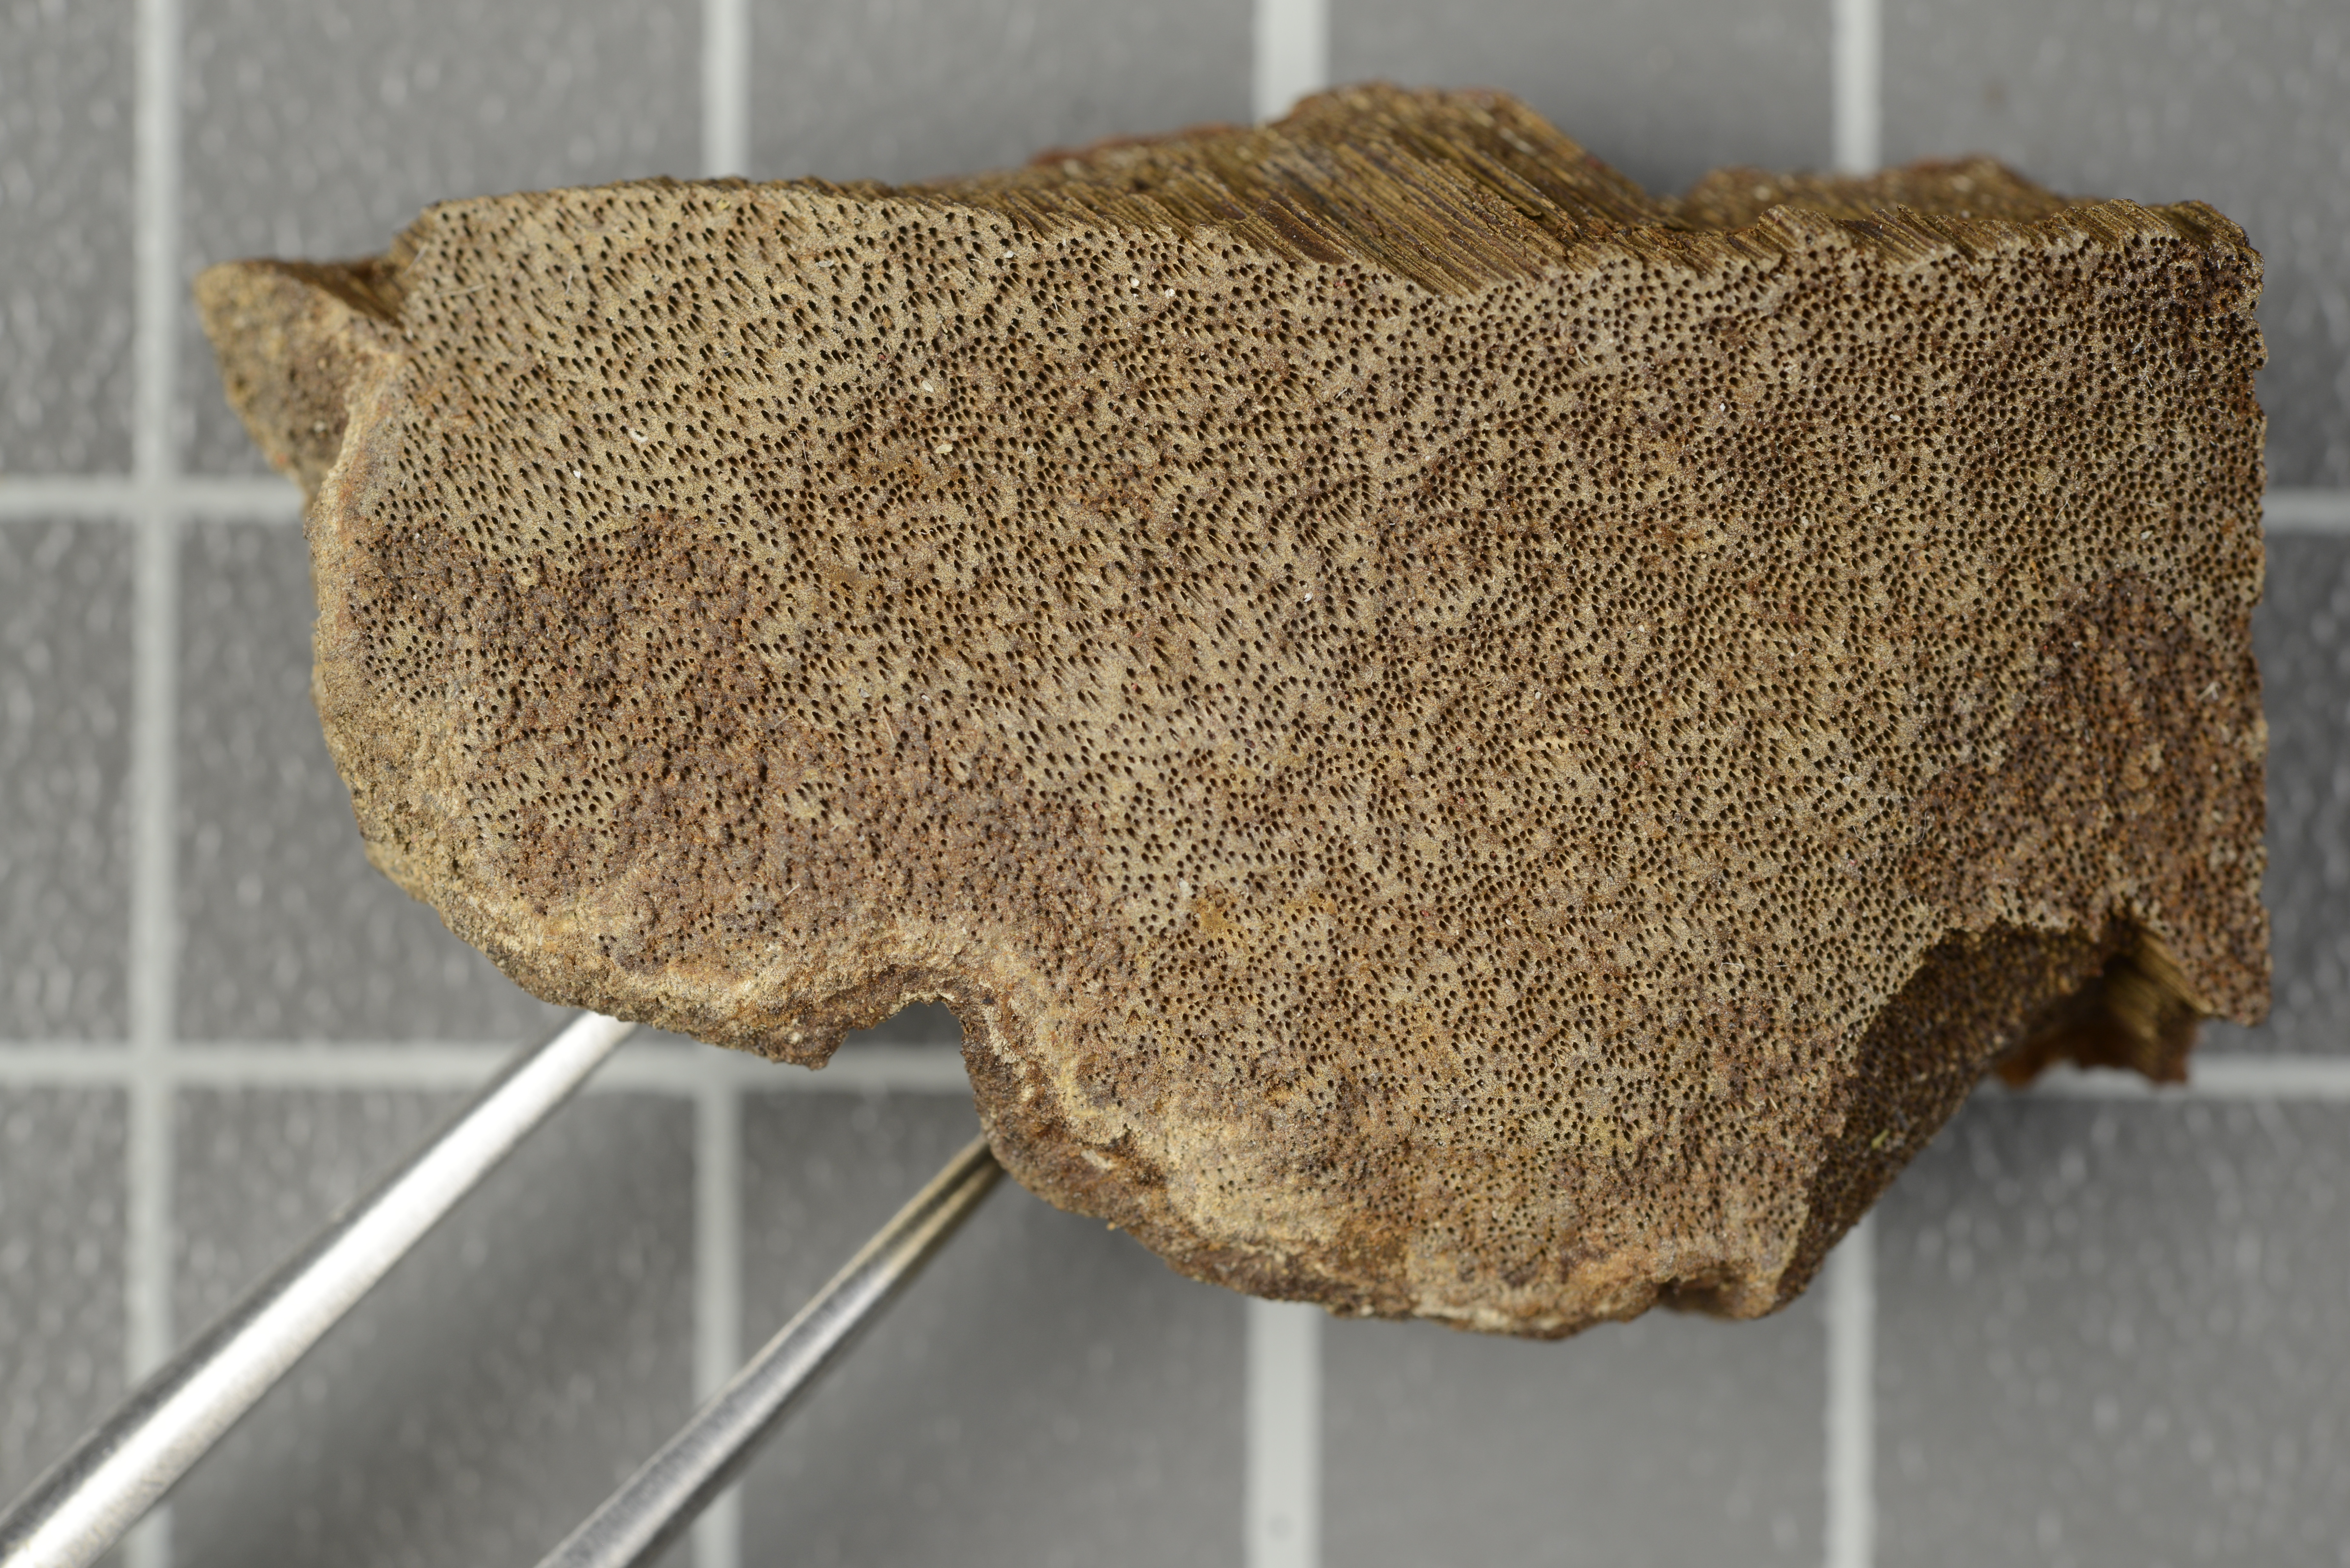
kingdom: Fungi
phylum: Basidiomycota
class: Agaricomycetes
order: Hymenochaetales
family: Hymenochaetaceae
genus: Fuscoporia
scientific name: Fuscoporia breviseta
